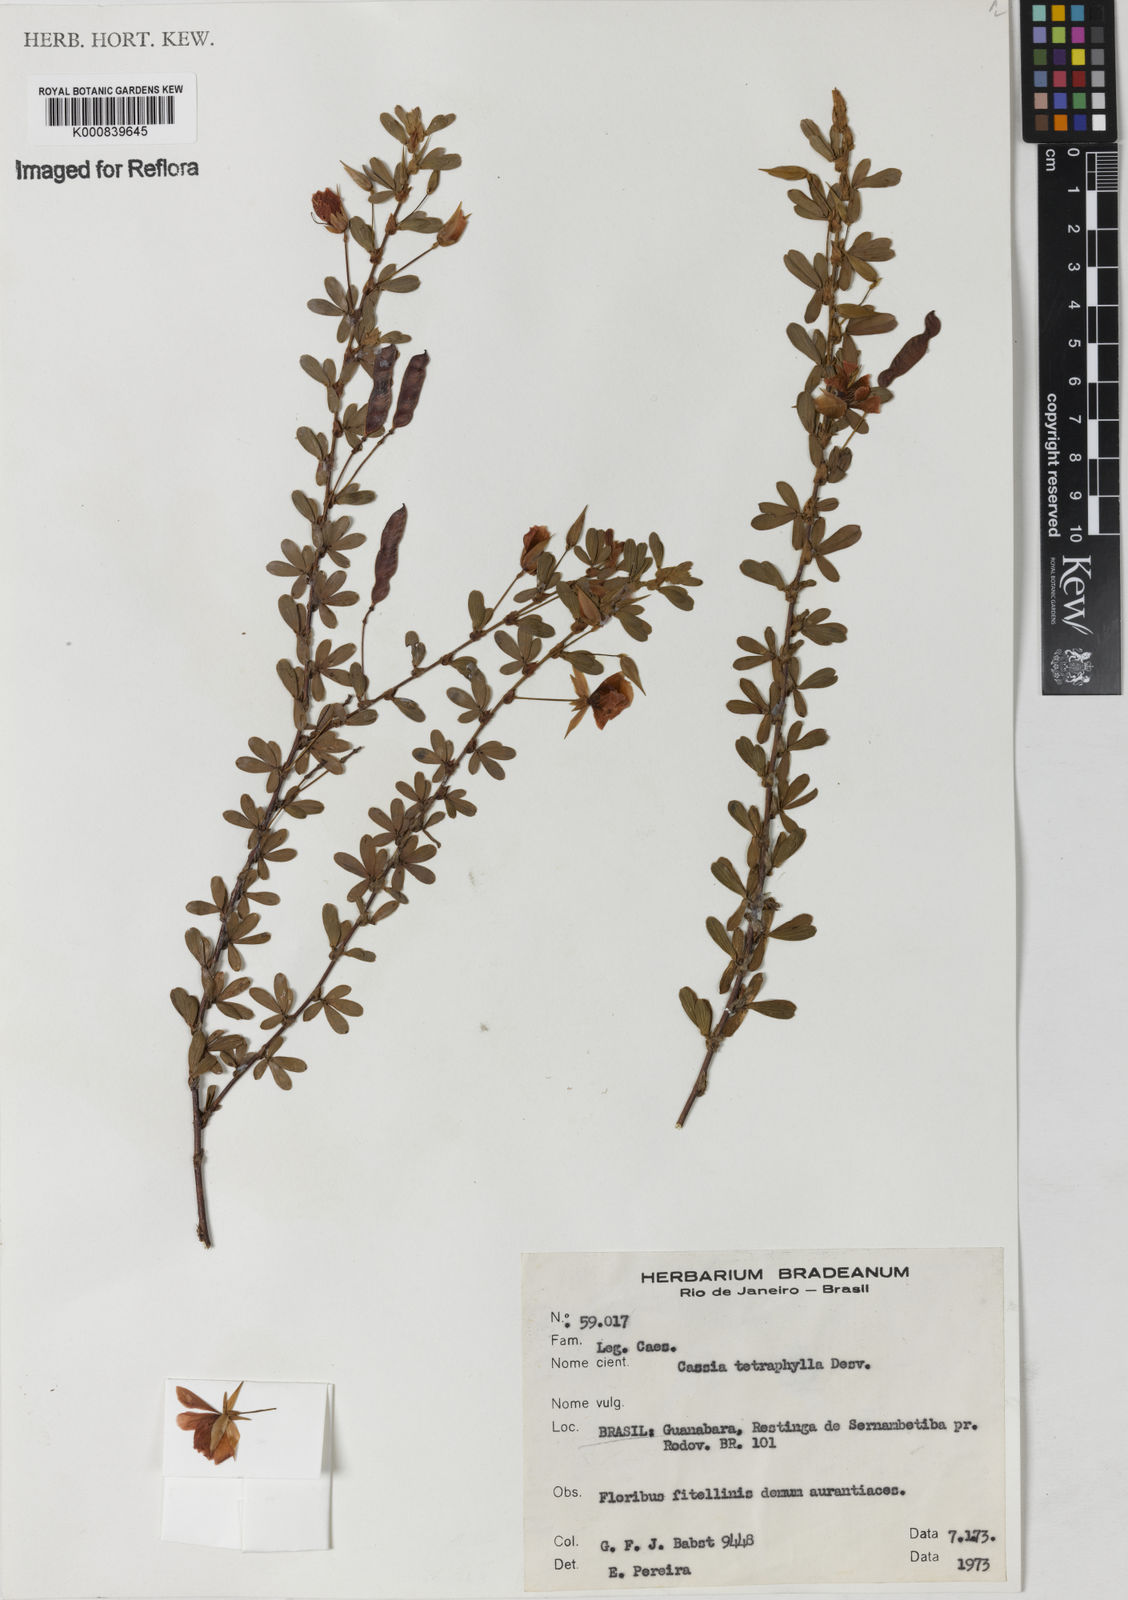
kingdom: Plantae
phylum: Tracheophyta
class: Magnoliopsida
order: Fabales
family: Fabaceae
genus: Chamaecrista
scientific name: Chamaecrista ramosa
